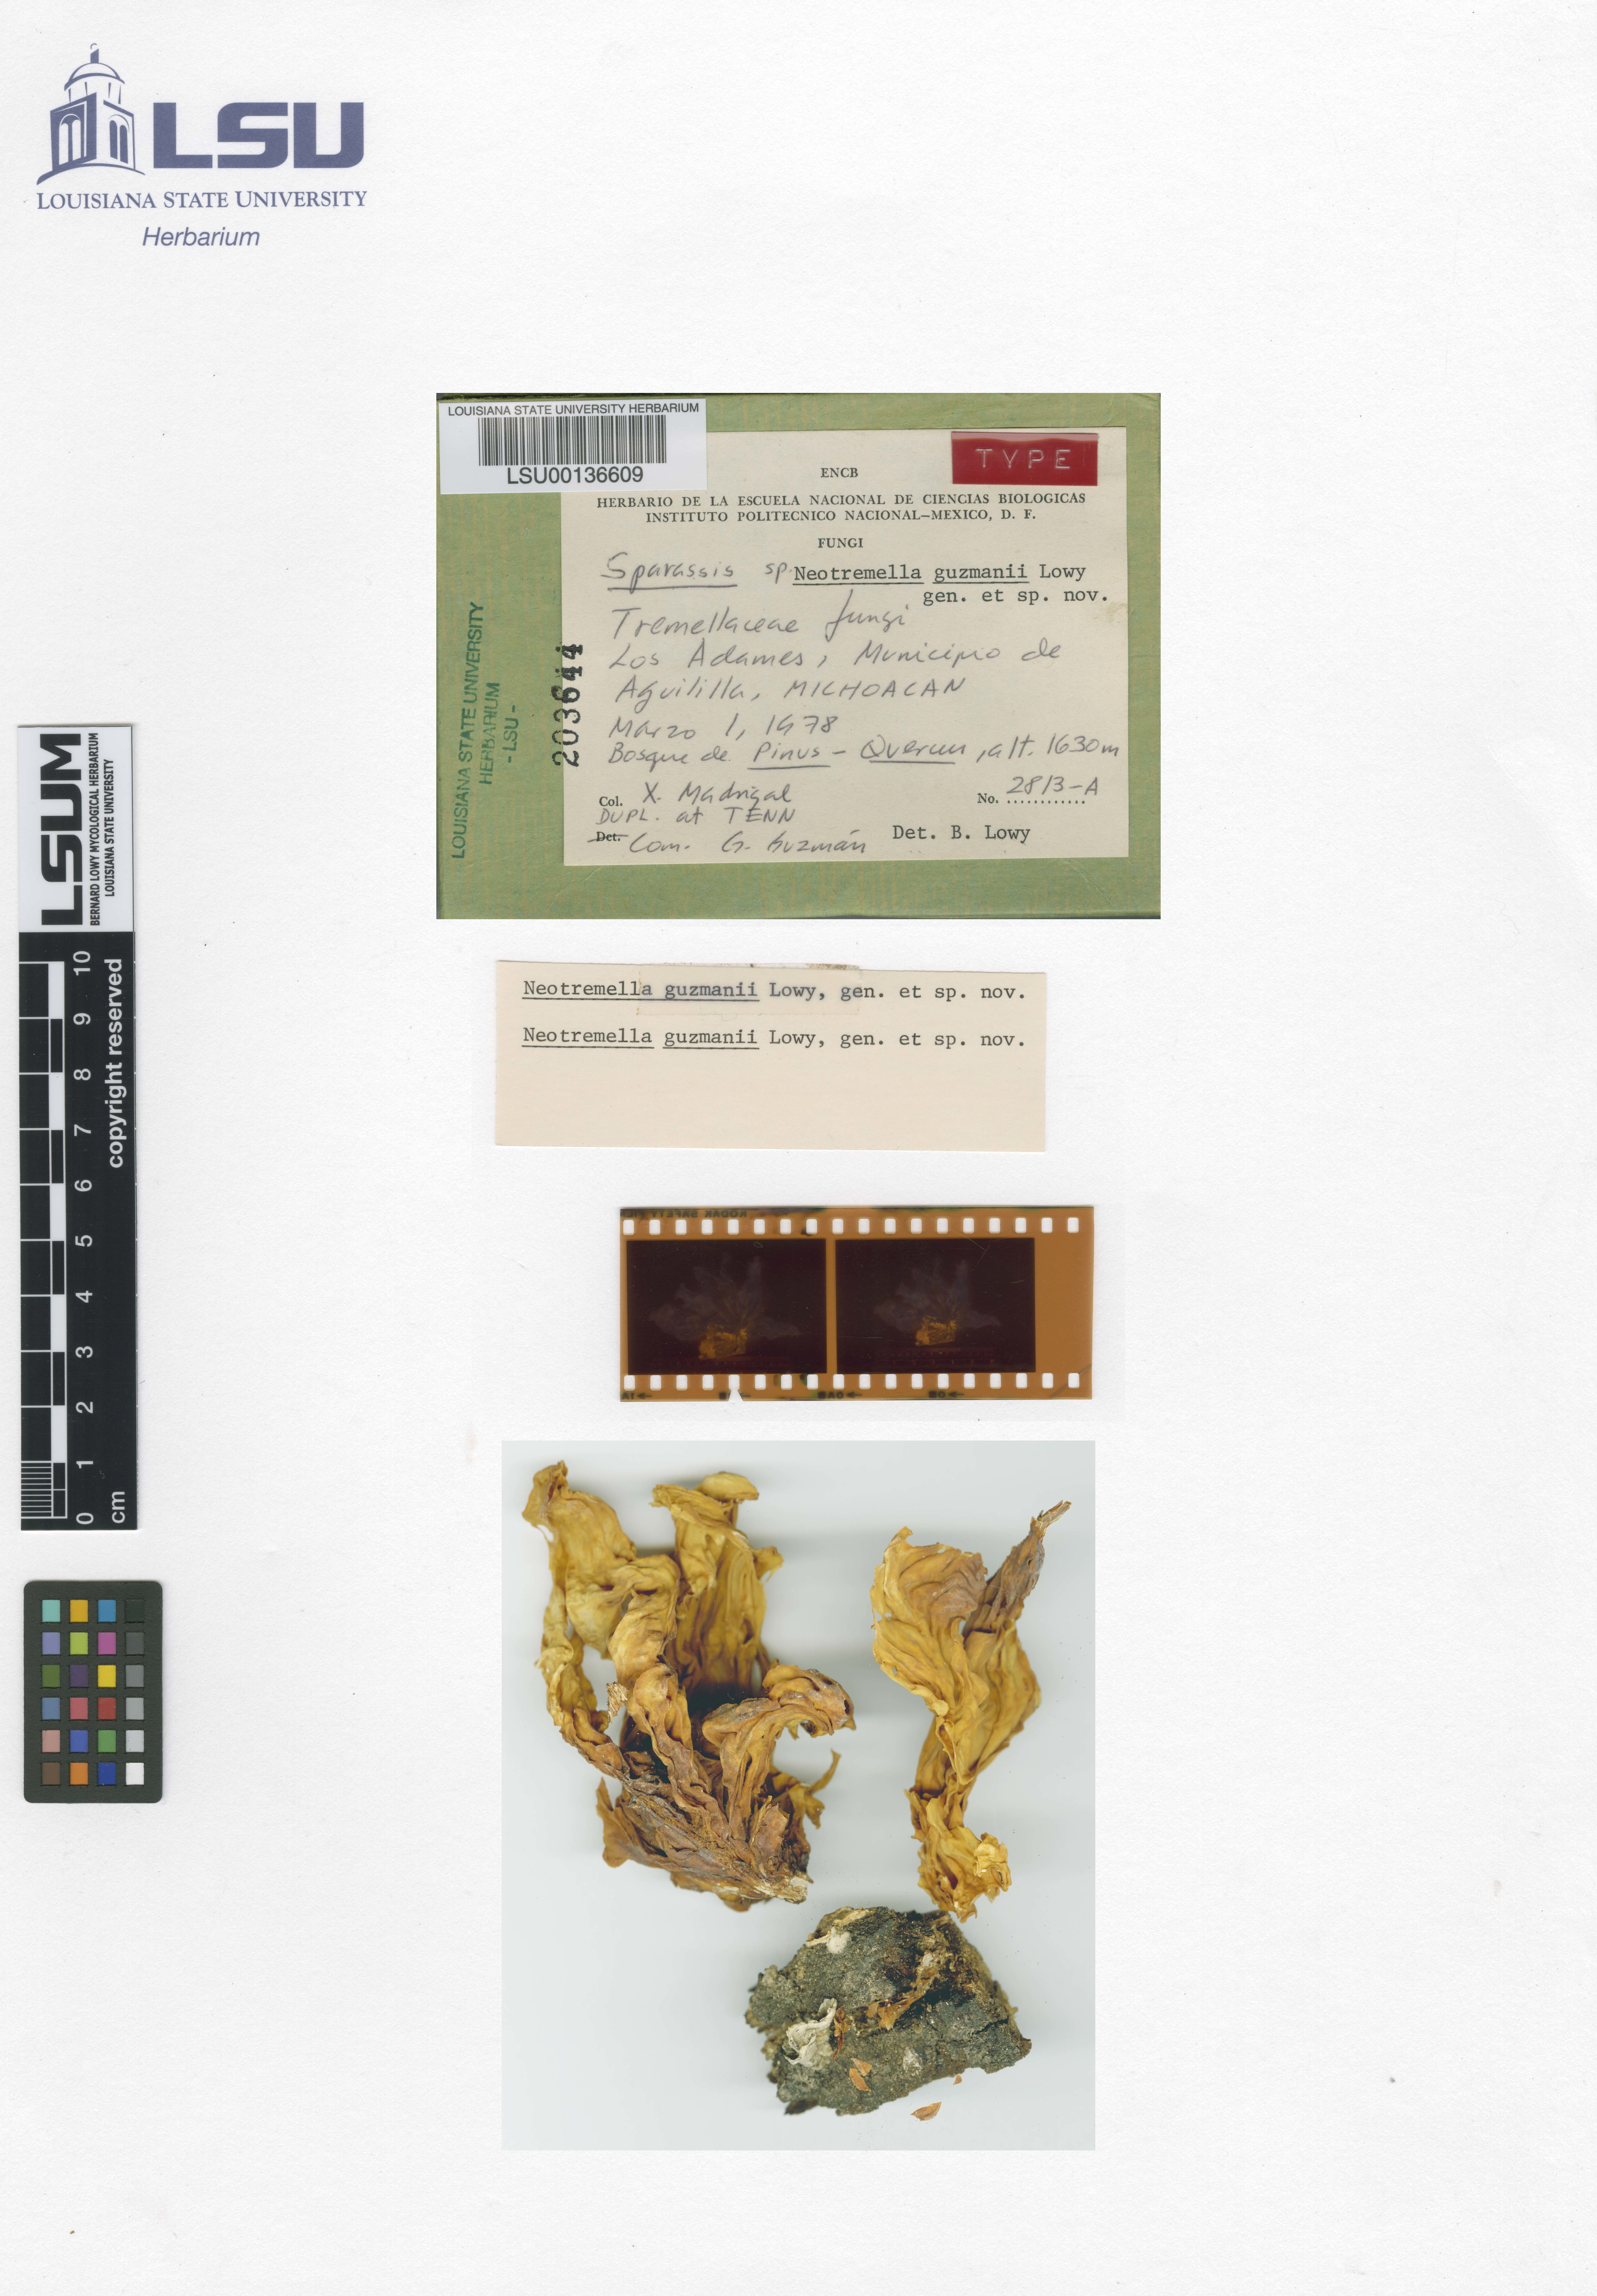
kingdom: Fungi
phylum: Basidiomycota
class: Tremellomycetes
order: Tremellales
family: Tremellaceae
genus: Neotremella
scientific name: Neotremella guzmanii
